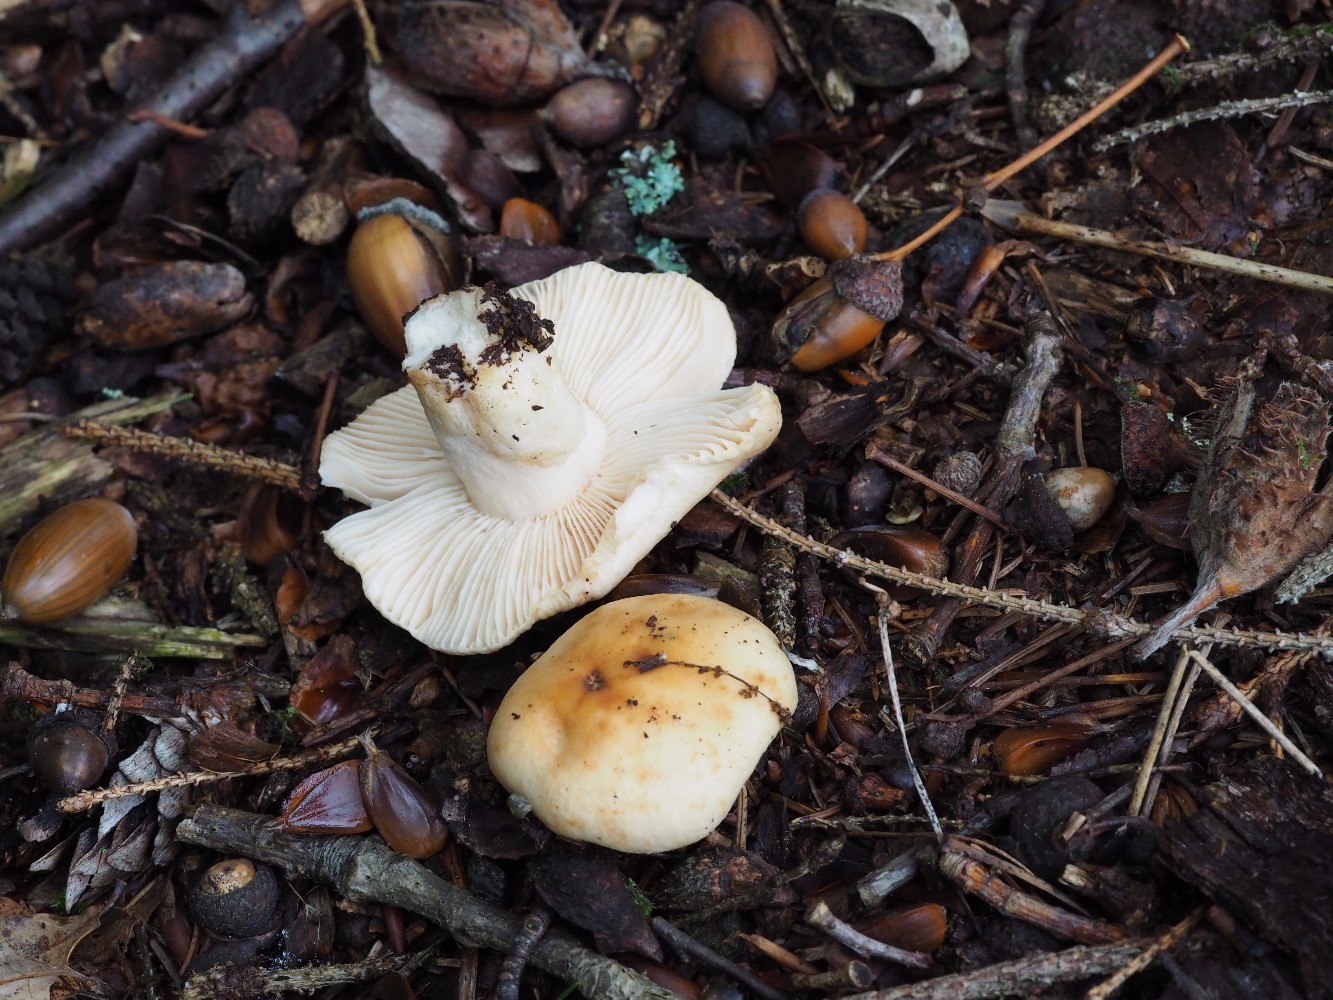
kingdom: Fungi
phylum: Basidiomycota
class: Agaricomycetes
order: Russulales
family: Russulaceae
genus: Russula
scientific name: Russula fellea
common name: galde-skørhat
